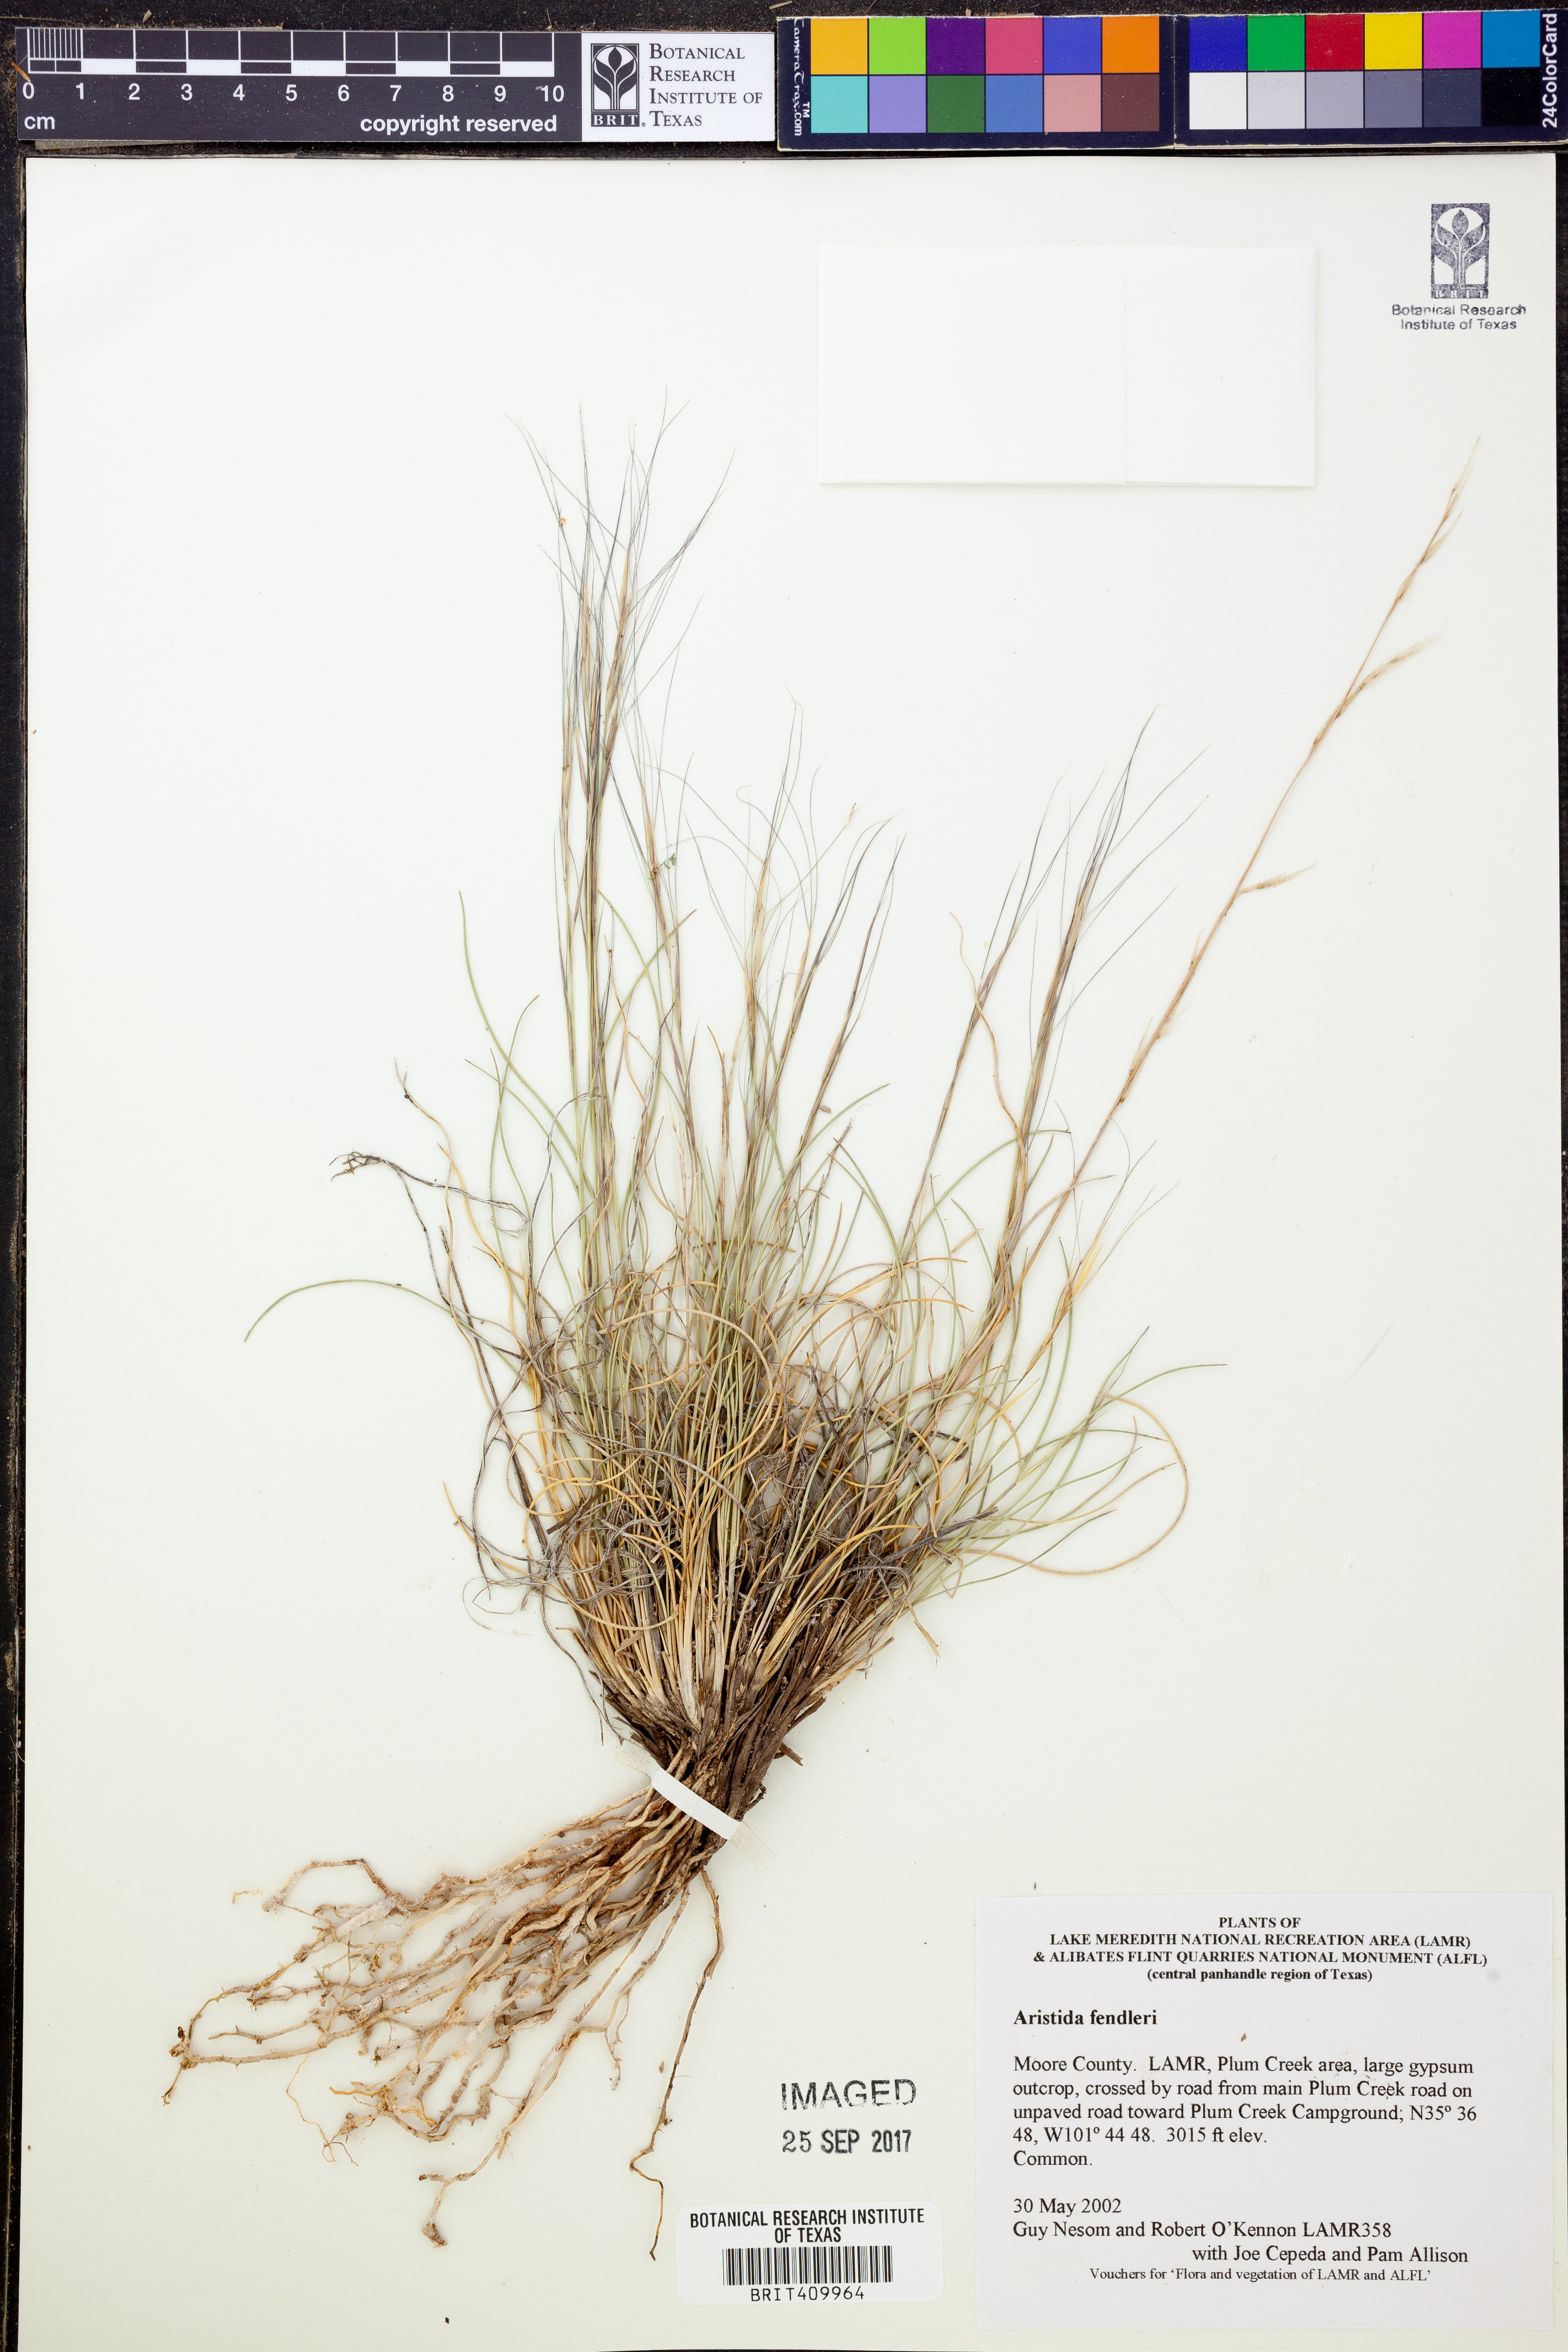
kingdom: Plantae
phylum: Tracheophyta
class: Liliopsida
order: Poales
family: Poaceae
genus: Aristida
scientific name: Aristida fendleriana
